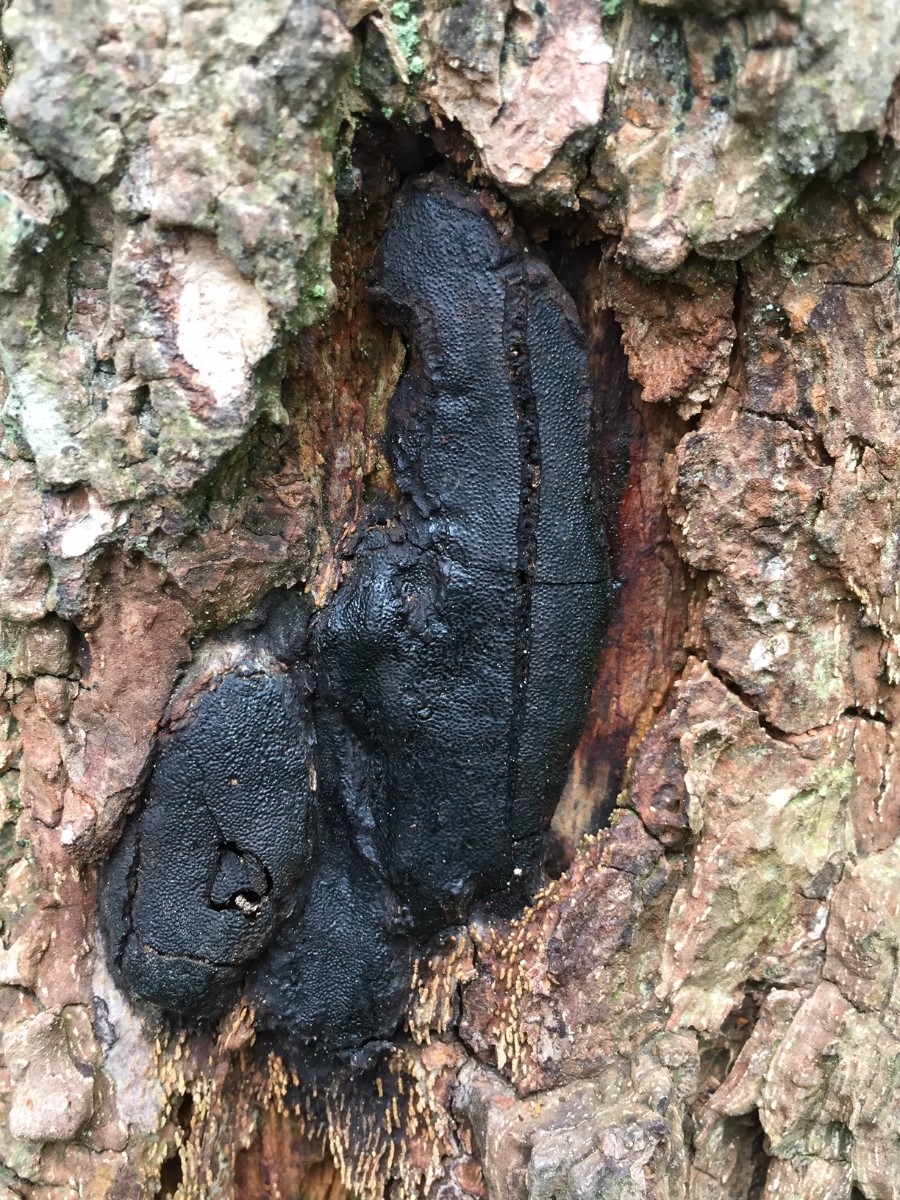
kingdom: Fungi
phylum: Ascomycota
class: Sordariomycetes
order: Boliniales
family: Boliniaceae
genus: Camarops
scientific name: Camarops polysperma
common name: elle-kulsnegl
